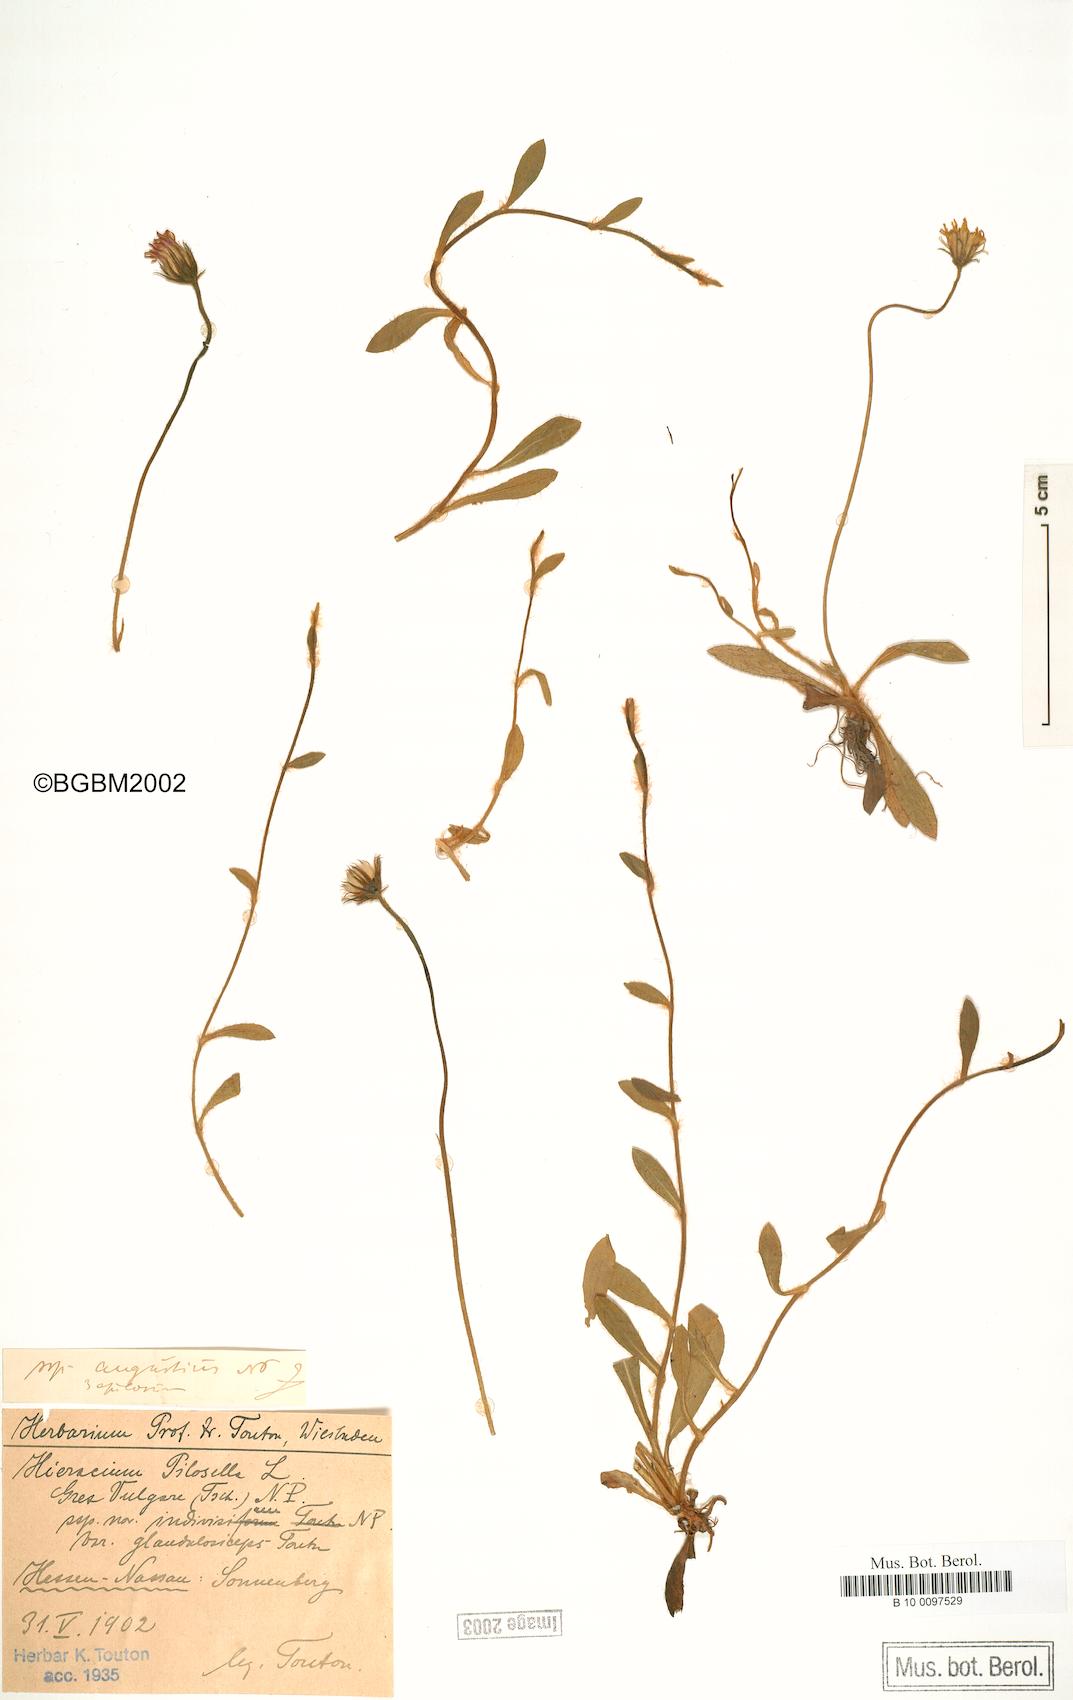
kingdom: Plantae
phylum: Tracheophyta
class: Magnoliopsida
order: Asterales
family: Asteraceae
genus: Pilosella
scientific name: Pilosella officinarum
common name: Mouse-ear hawkweed
